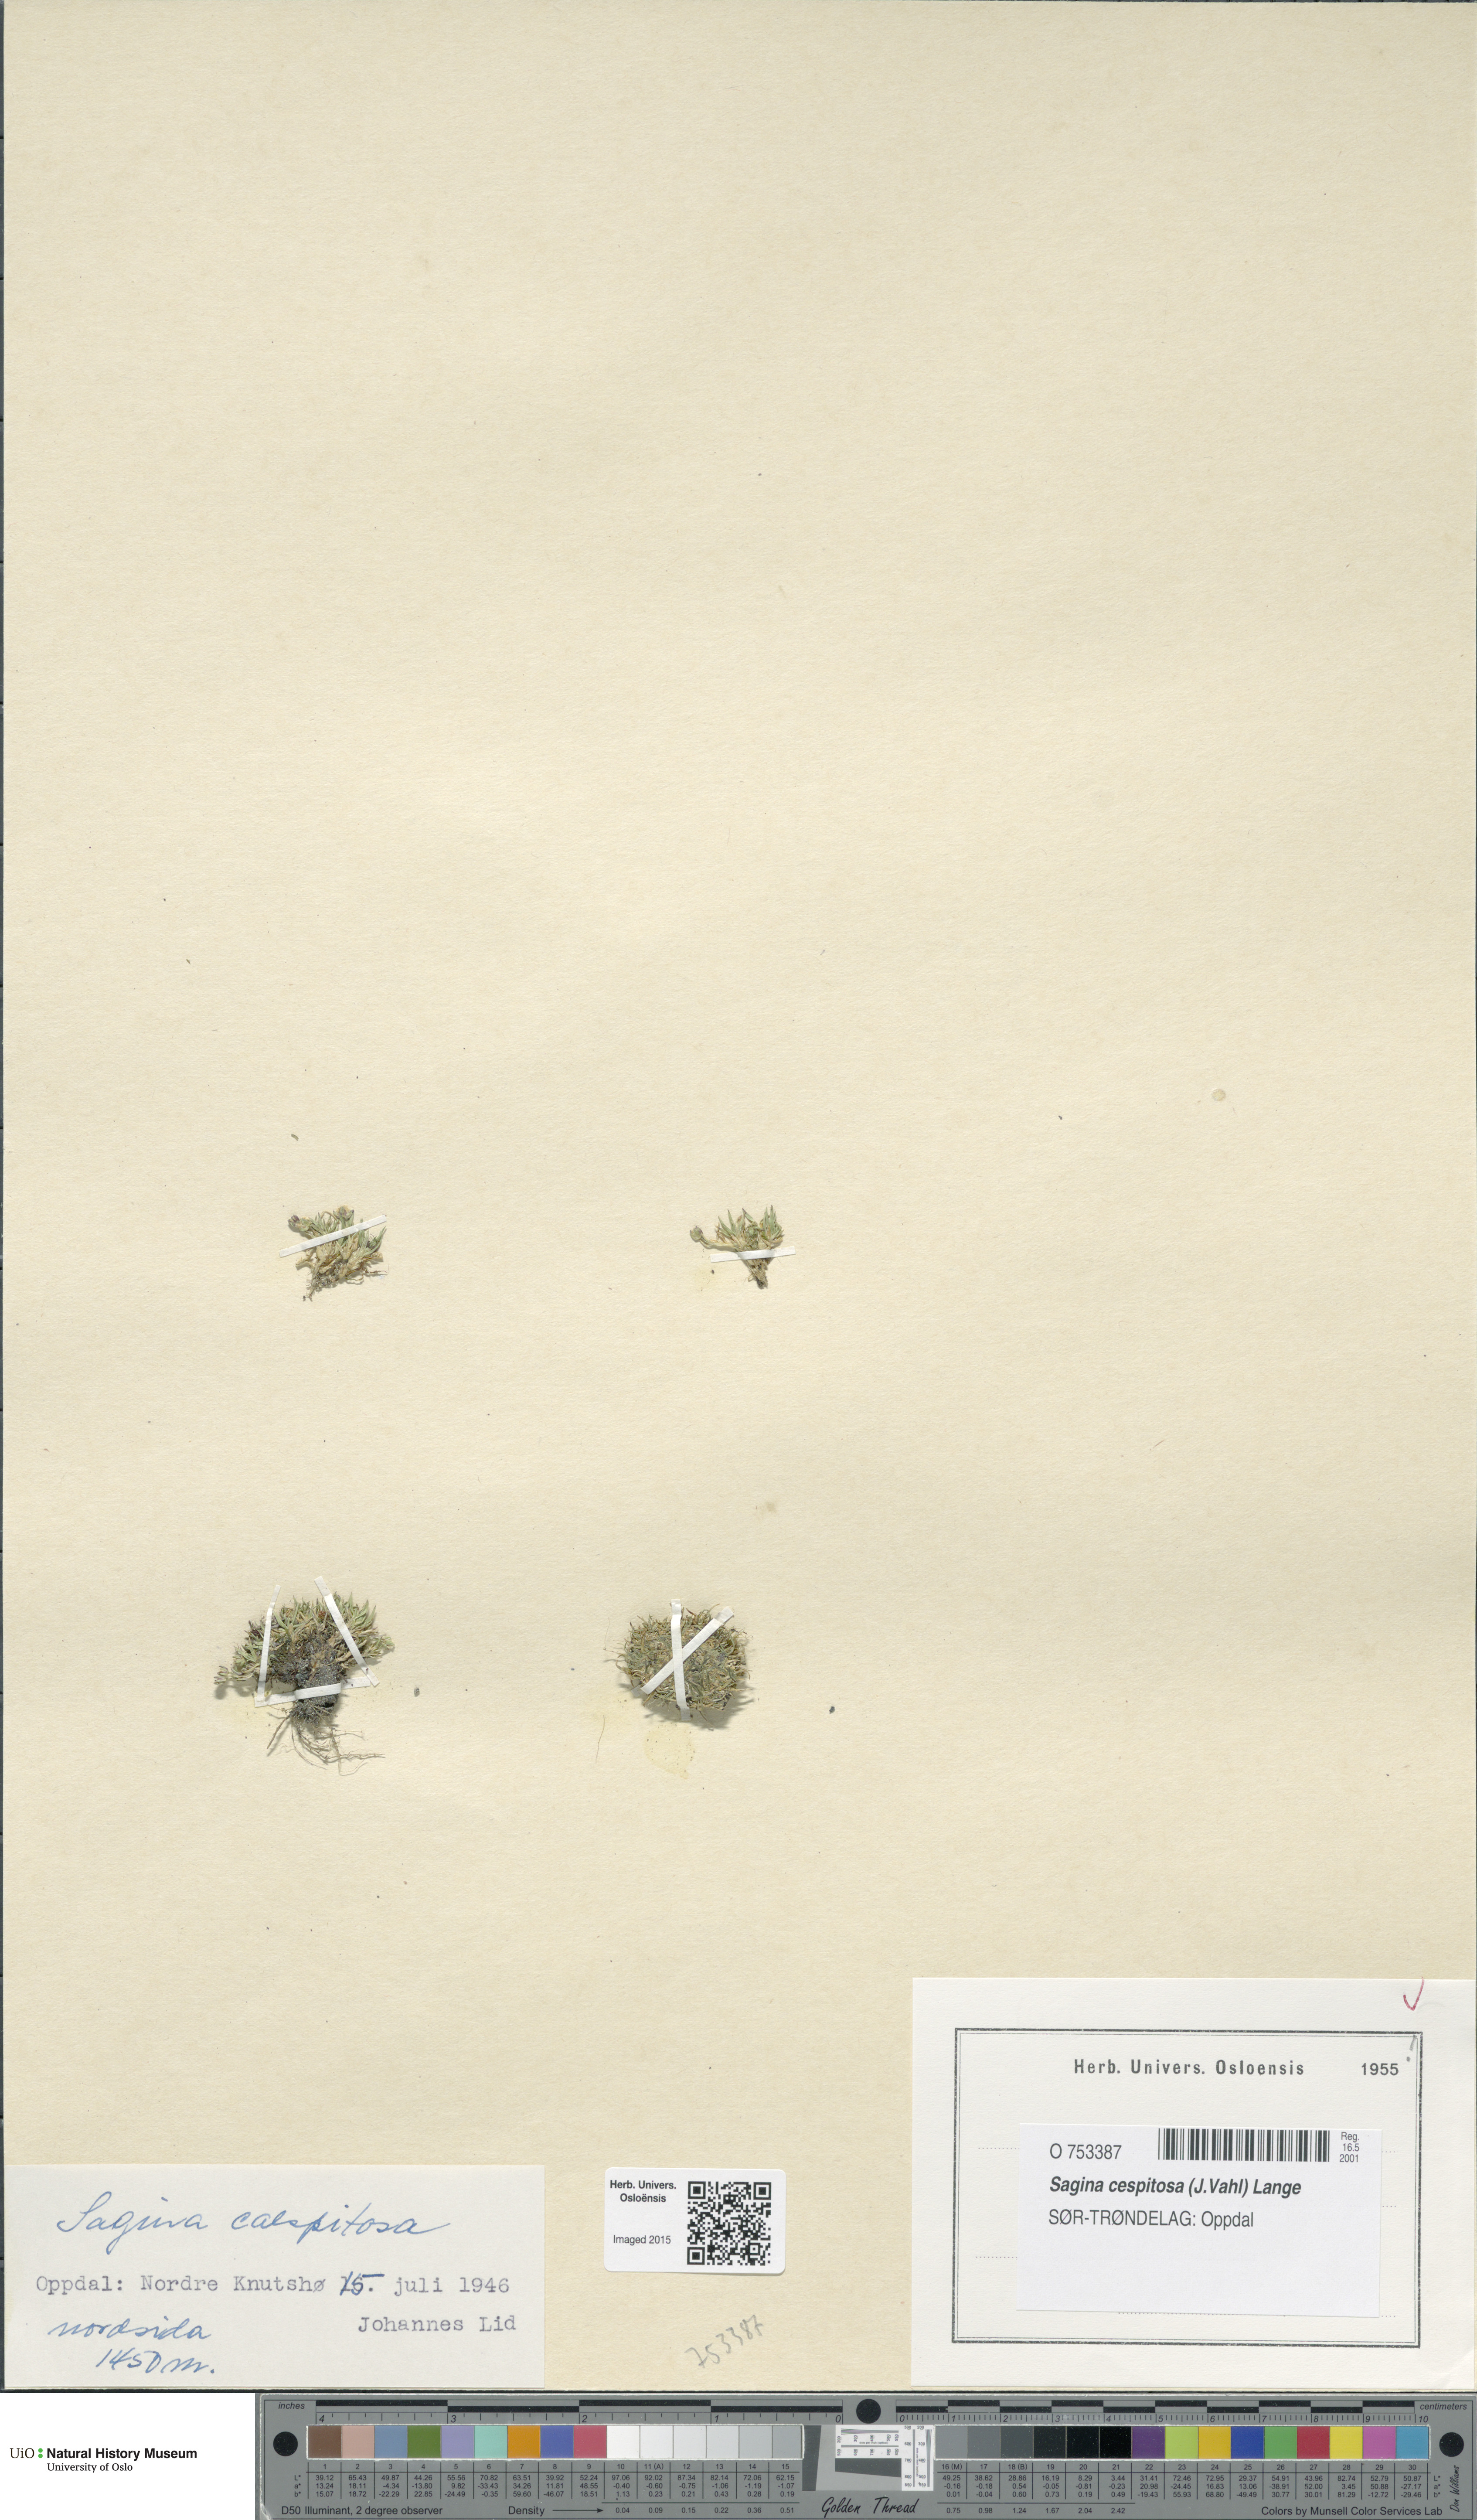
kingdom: Plantae
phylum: Tracheophyta
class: Magnoliopsida
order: Caryophyllales
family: Caryophyllaceae
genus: Sagina
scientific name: Sagina caespitosa
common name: Tufted pearlwort
